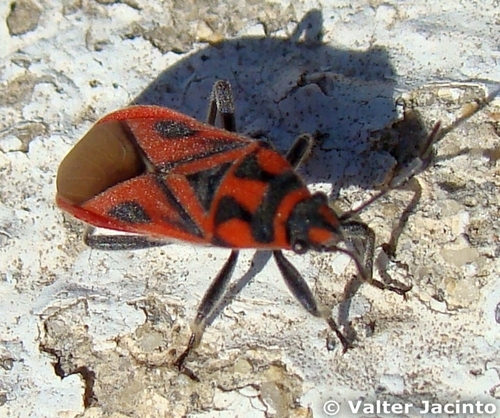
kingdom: Animalia
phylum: Arthropoda
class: Insecta
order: Hemiptera
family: Lygaeidae
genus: Graptostethus
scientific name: Graptostethus servus
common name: Lygaeid bug
